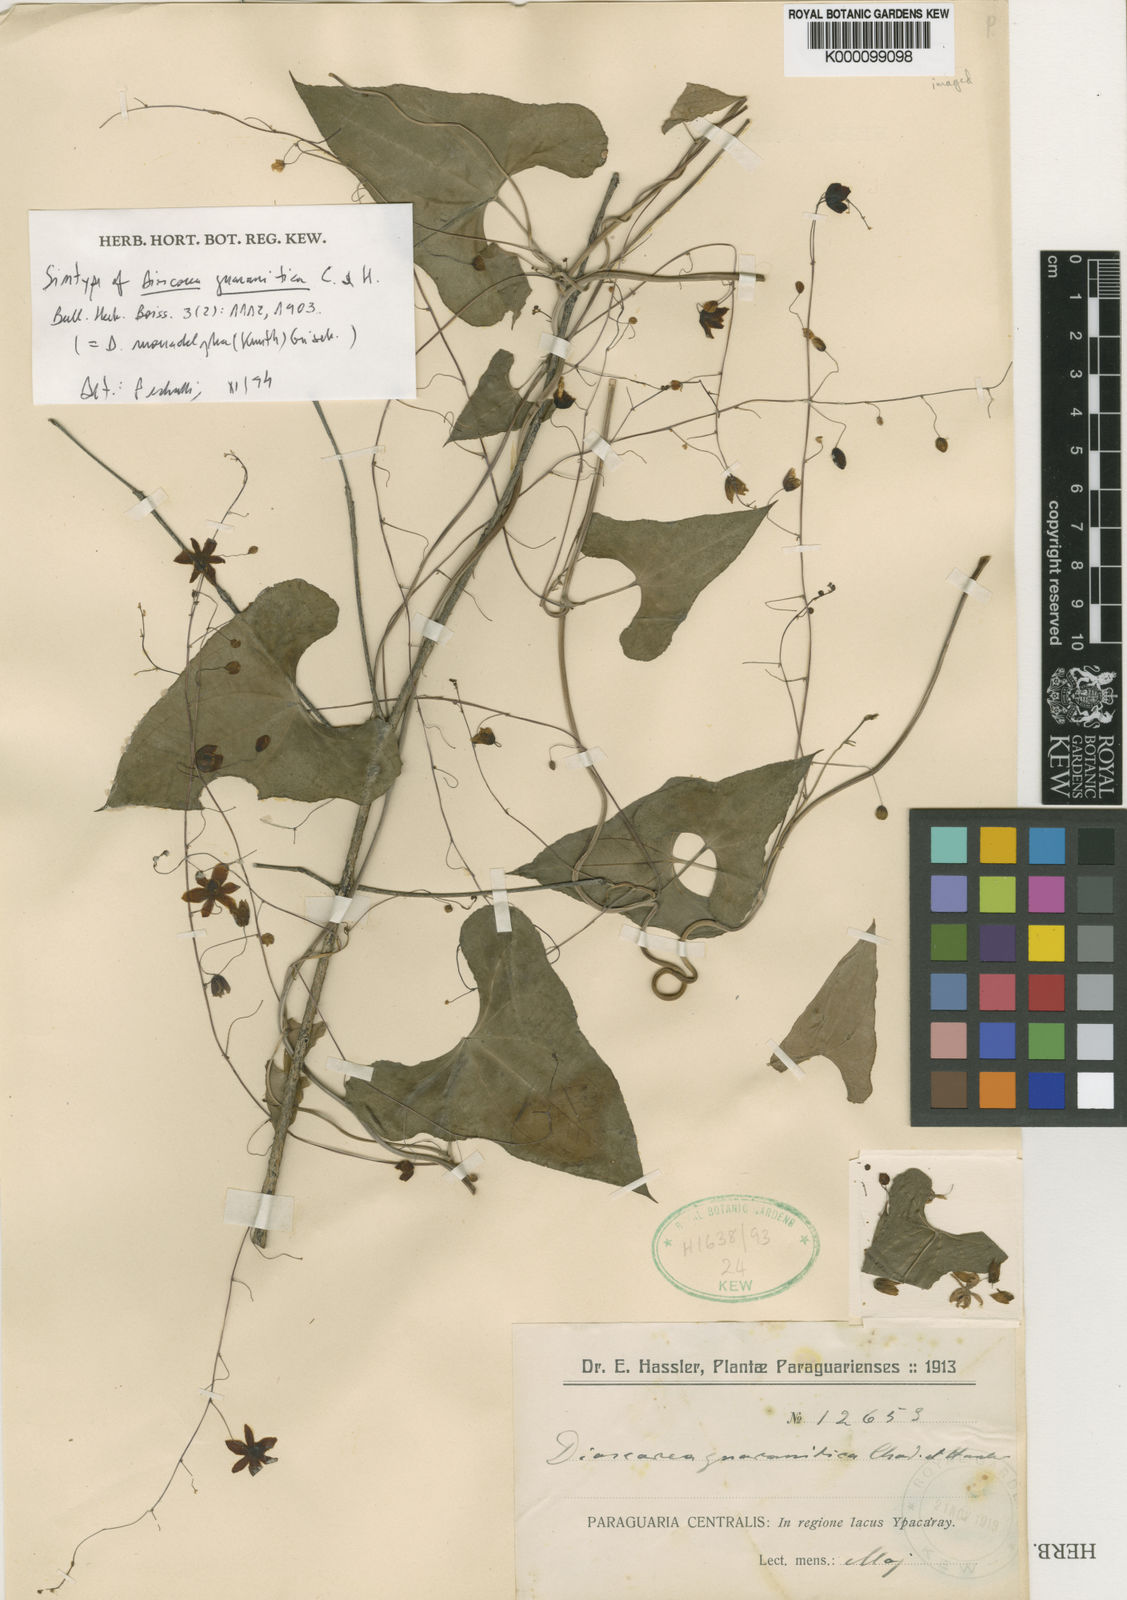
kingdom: Plantae
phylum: Tracheophyta
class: Liliopsida
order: Dioscoreales
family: Dioscoreaceae
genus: Dioscorea
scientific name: Dioscorea subhastata
